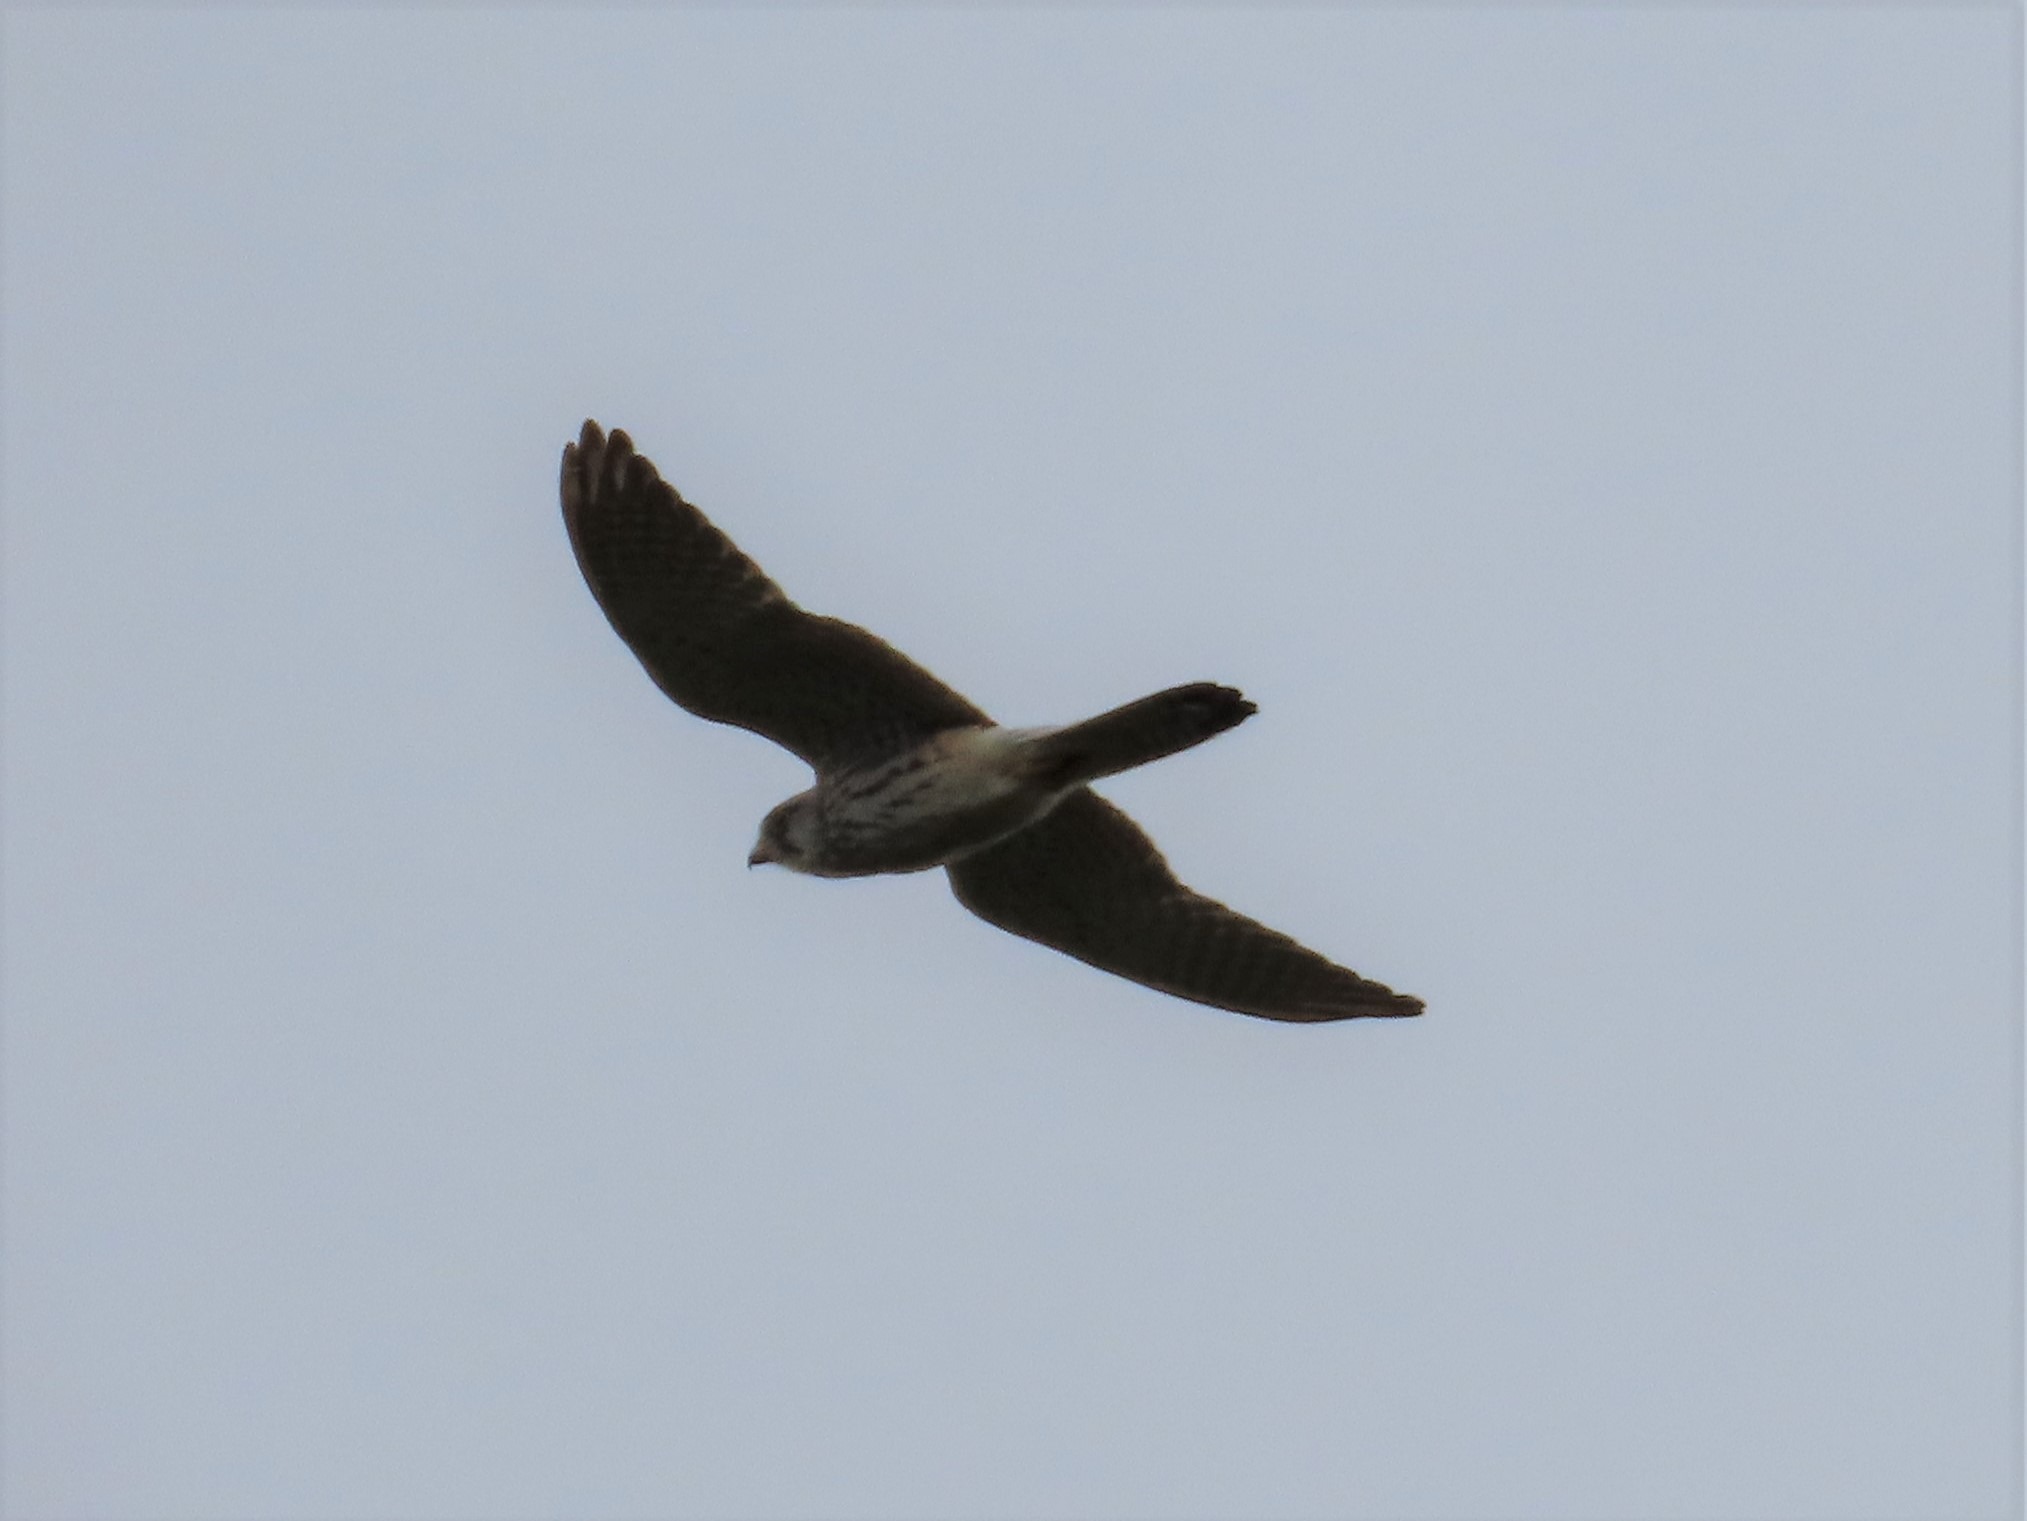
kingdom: Animalia
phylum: Chordata
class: Aves
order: Falconiformes
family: Falconidae
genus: Falco
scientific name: Falco tinnunculus
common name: Tårnfalk
